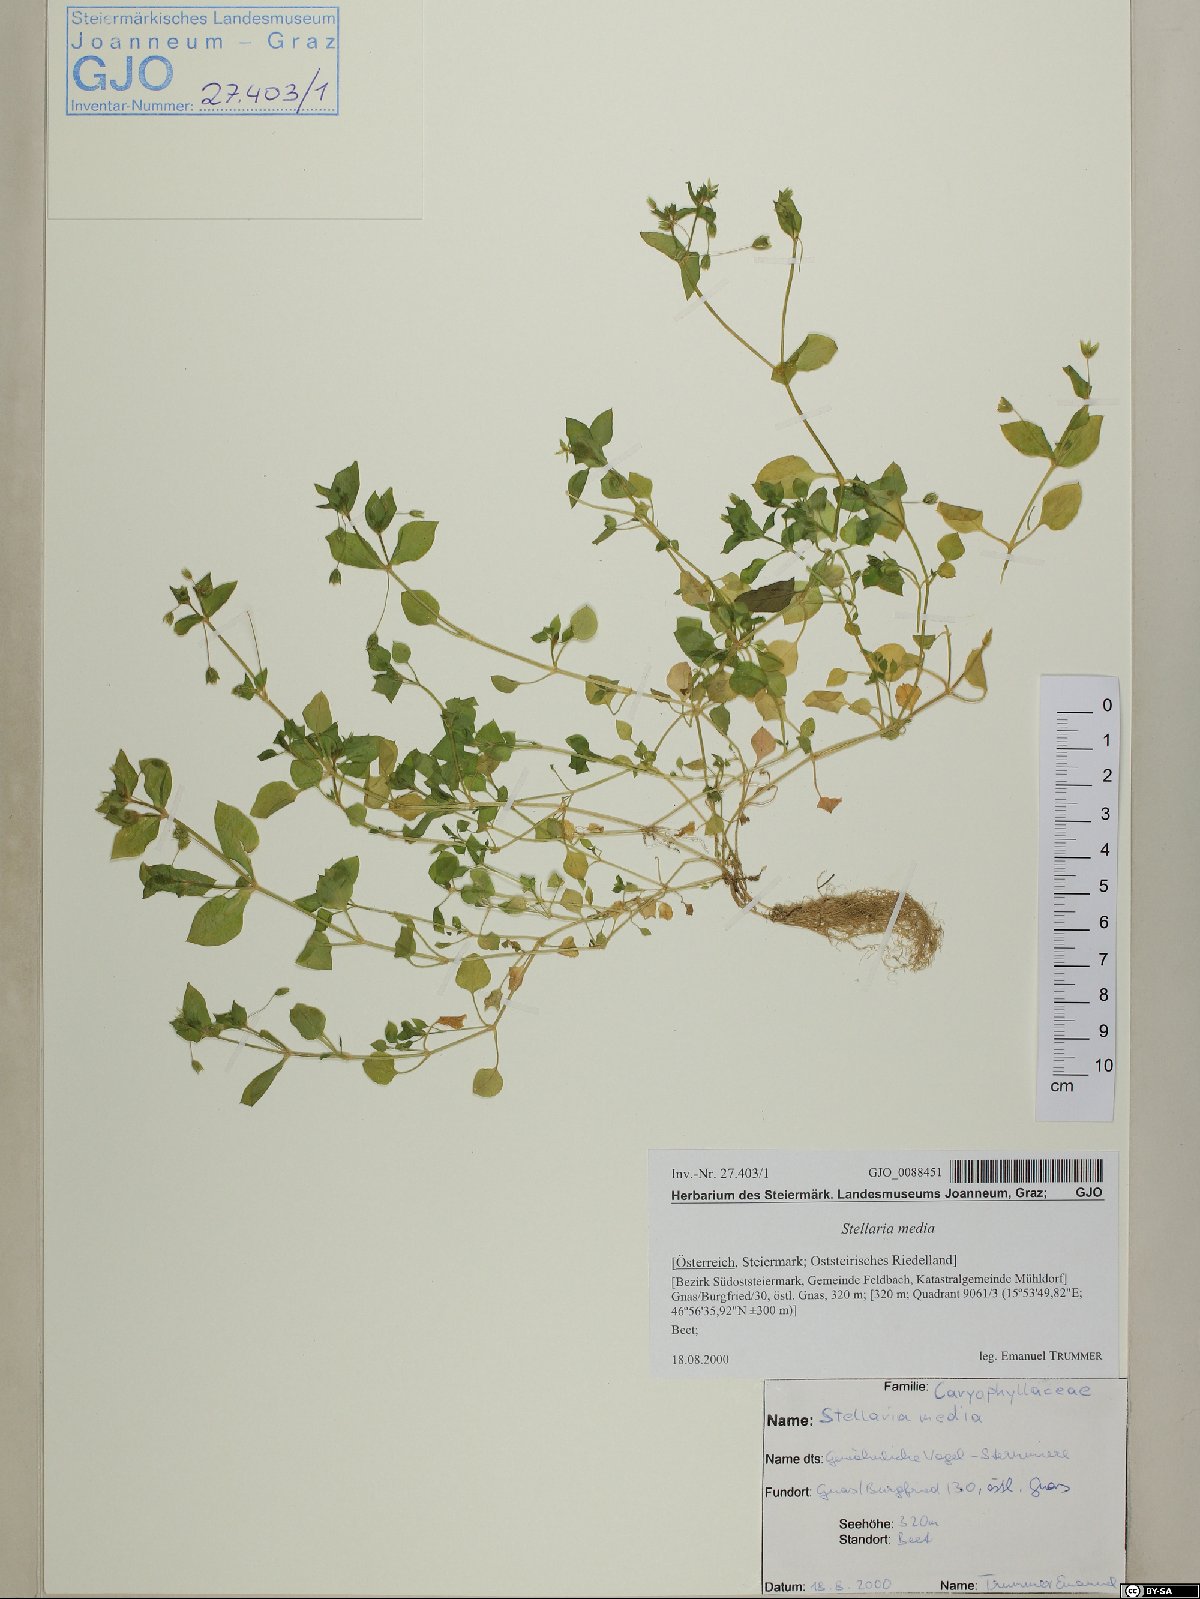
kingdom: Plantae
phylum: Tracheophyta
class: Magnoliopsida
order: Caryophyllales
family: Caryophyllaceae
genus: Stellaria
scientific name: Stellaria media
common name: Common chickweed
